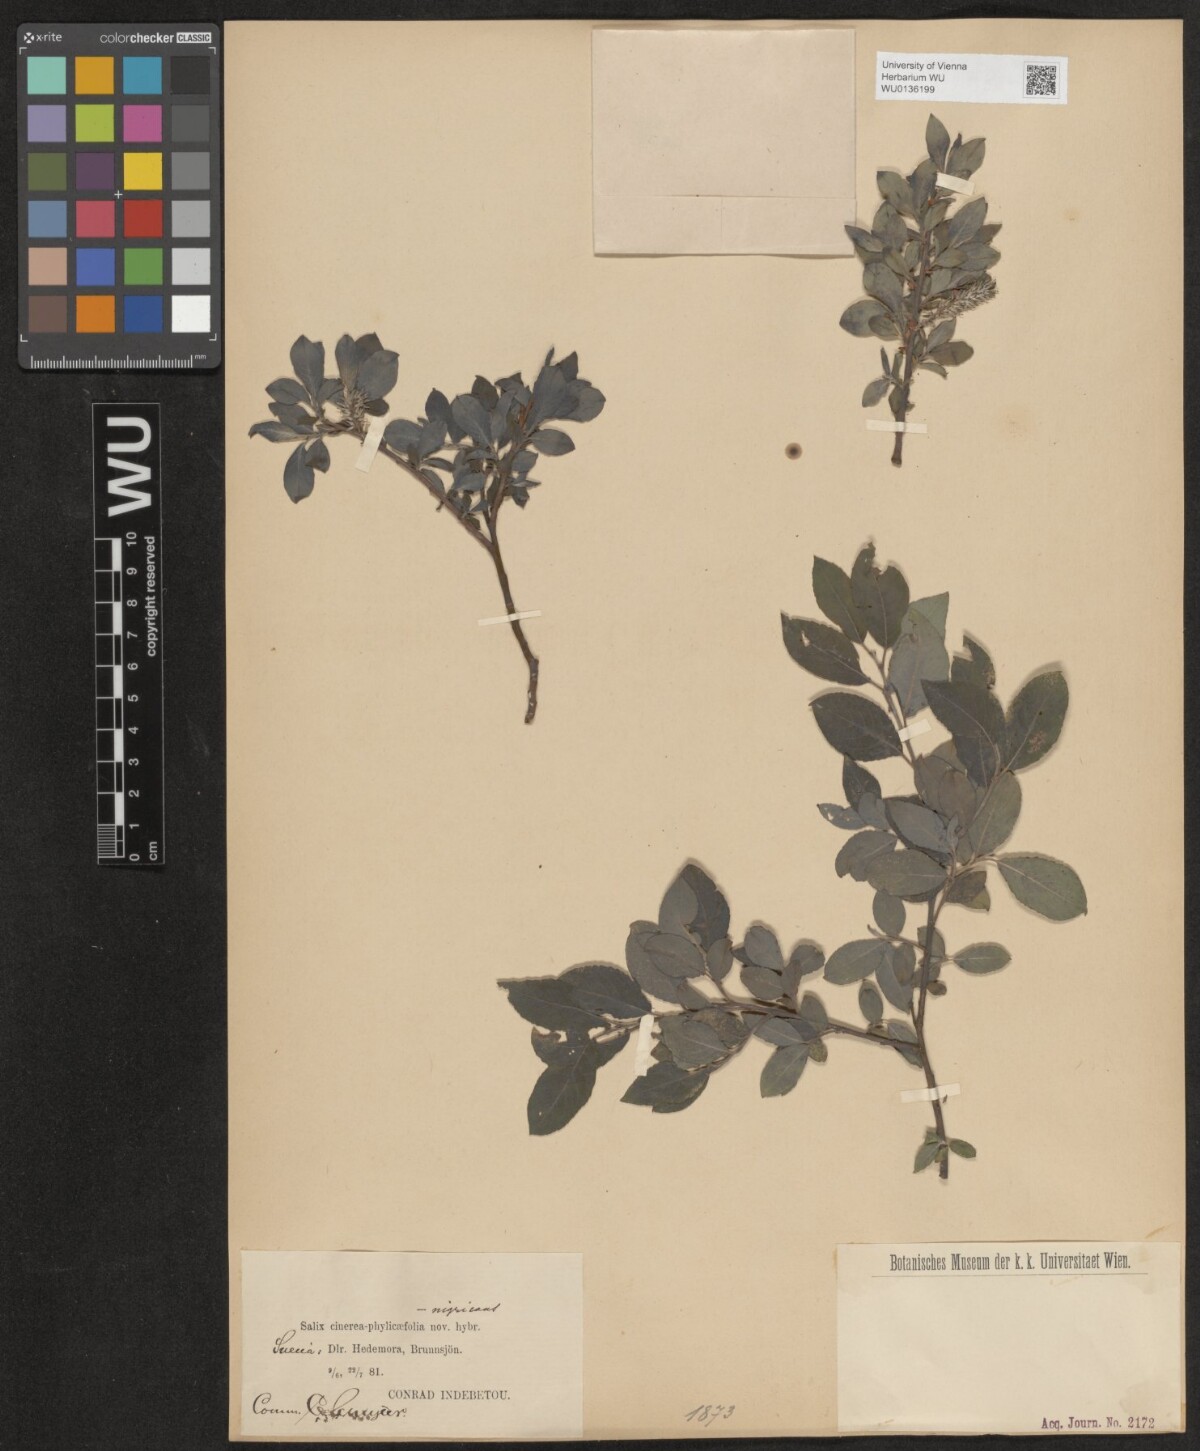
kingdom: Plantae
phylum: Tracheophyta
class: Magnoliopsida
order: Malpighiales
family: Salicaceae
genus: Salix
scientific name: Salix
